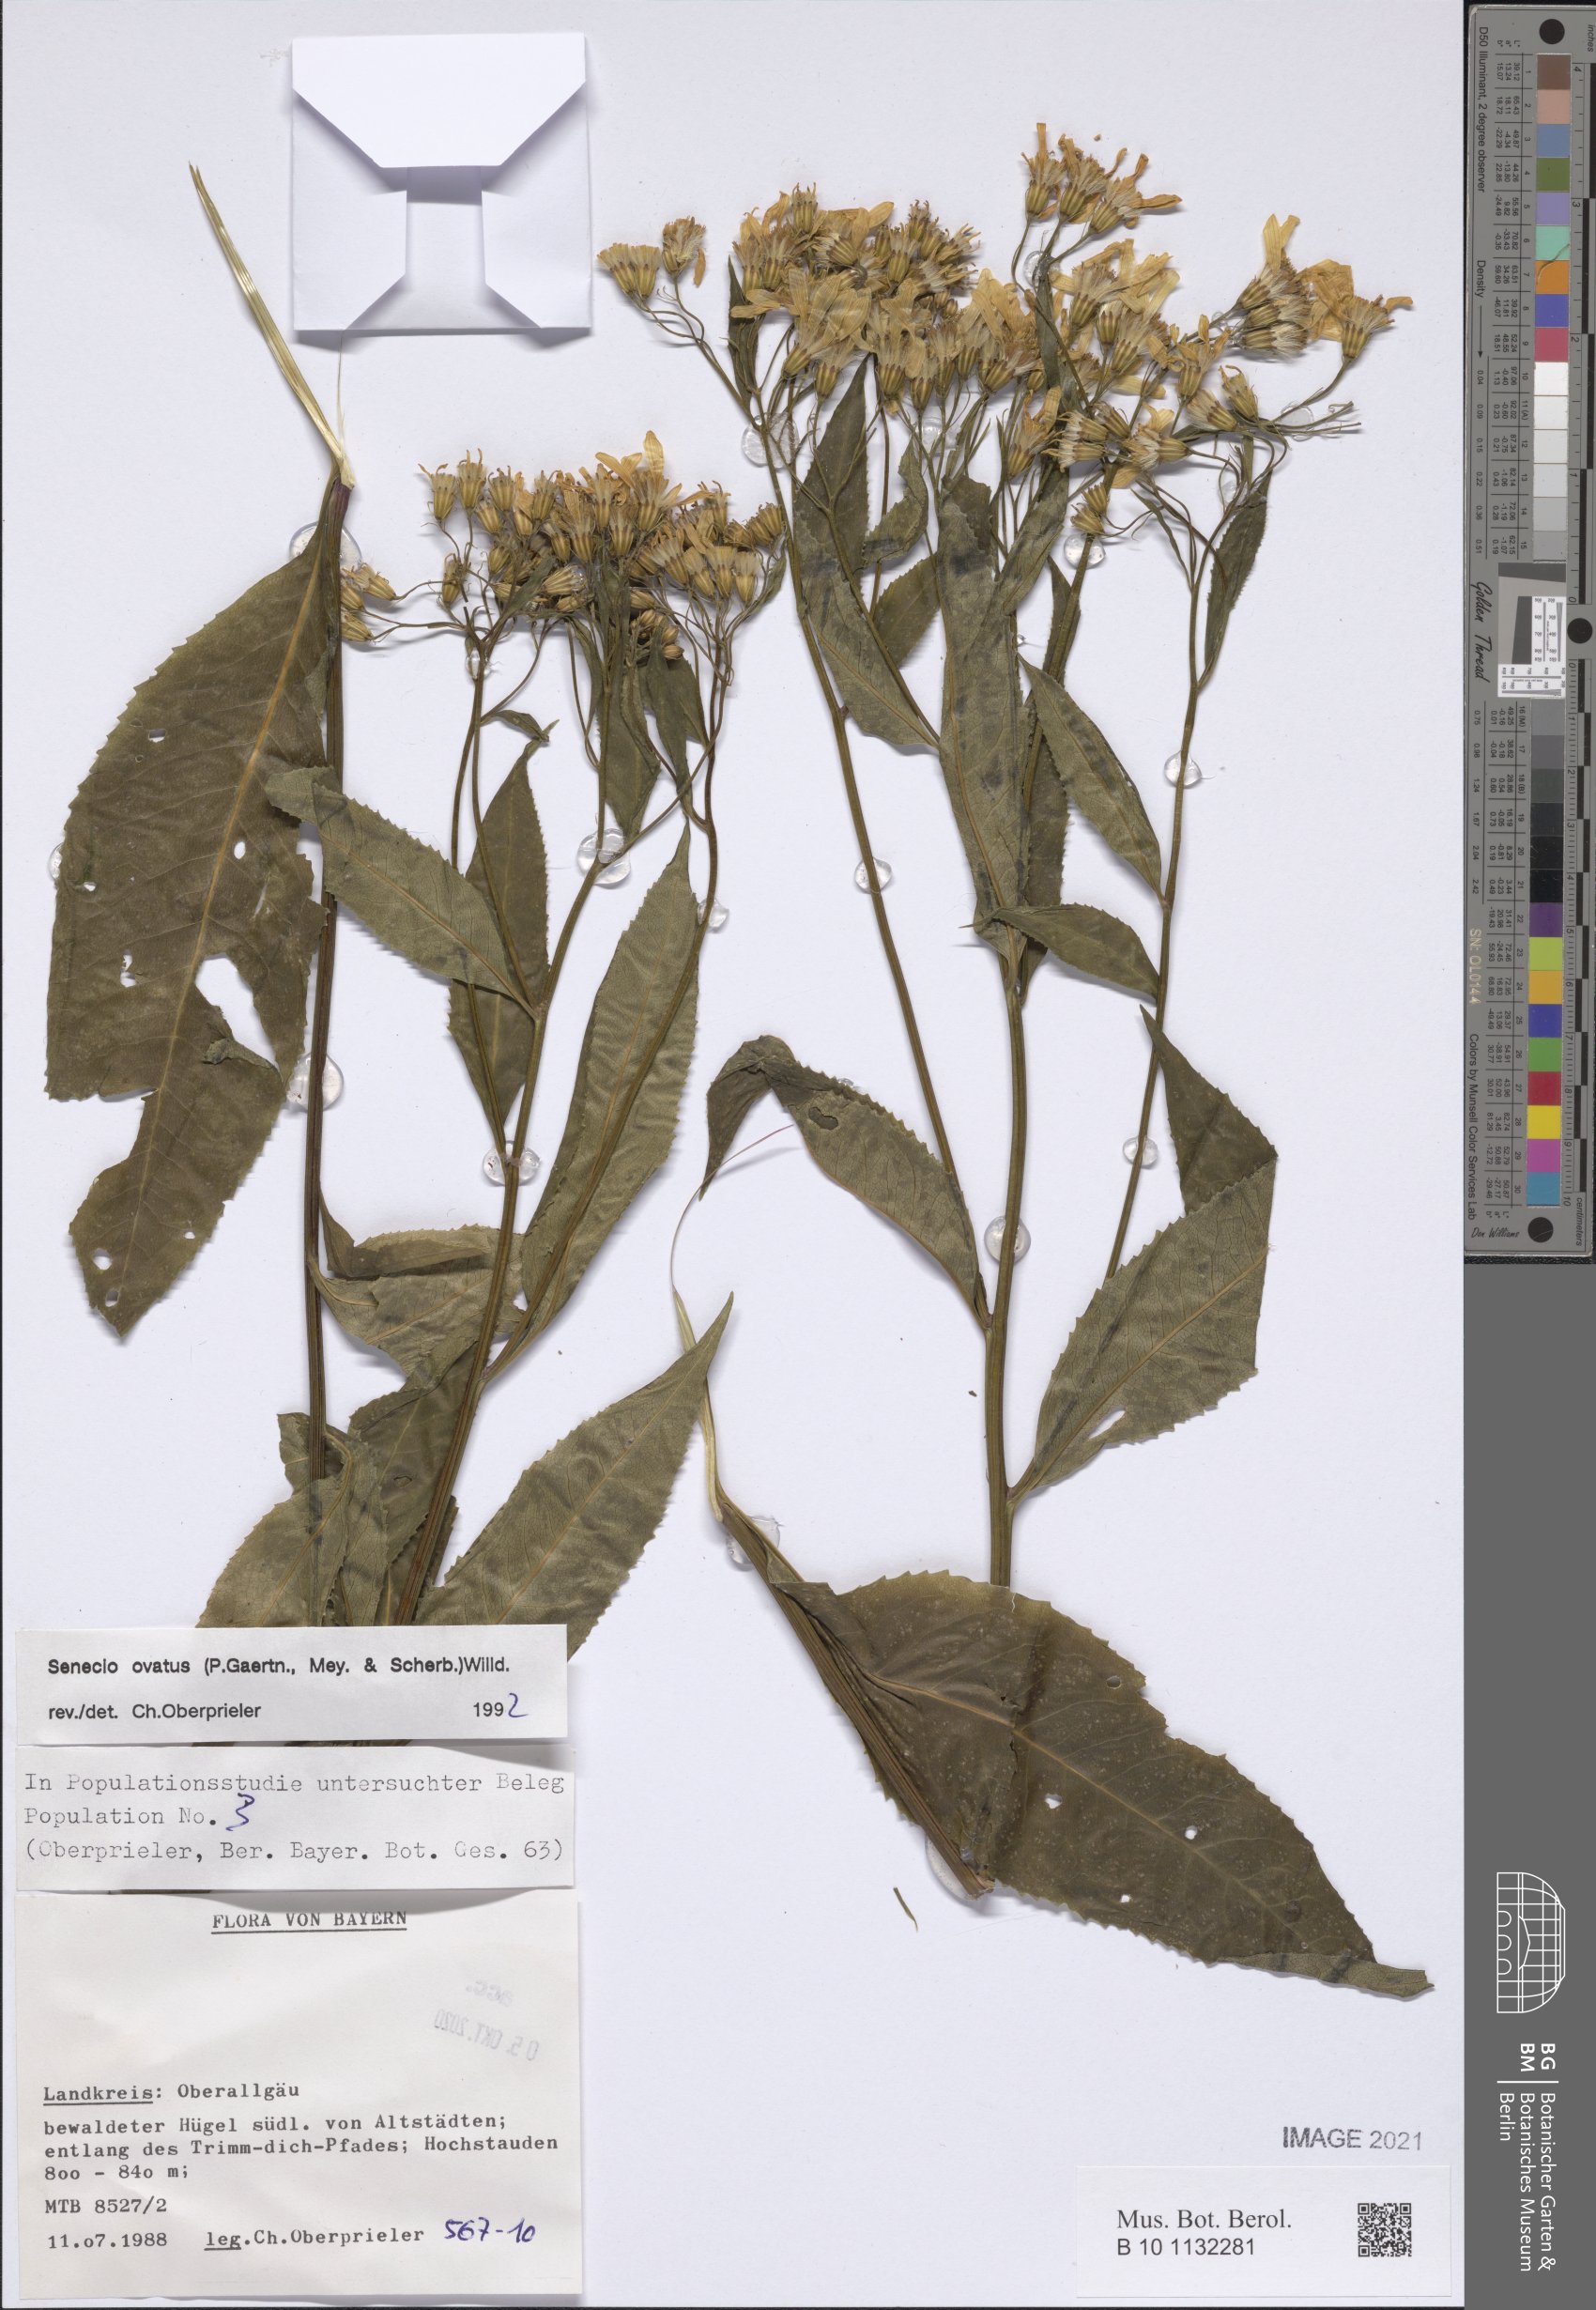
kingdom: Plantae
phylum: Tracheophyta
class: Magnoliopsida
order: Asterales
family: Asteraceae
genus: Senecio
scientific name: Senecio ovatus
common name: Wood ragwort
